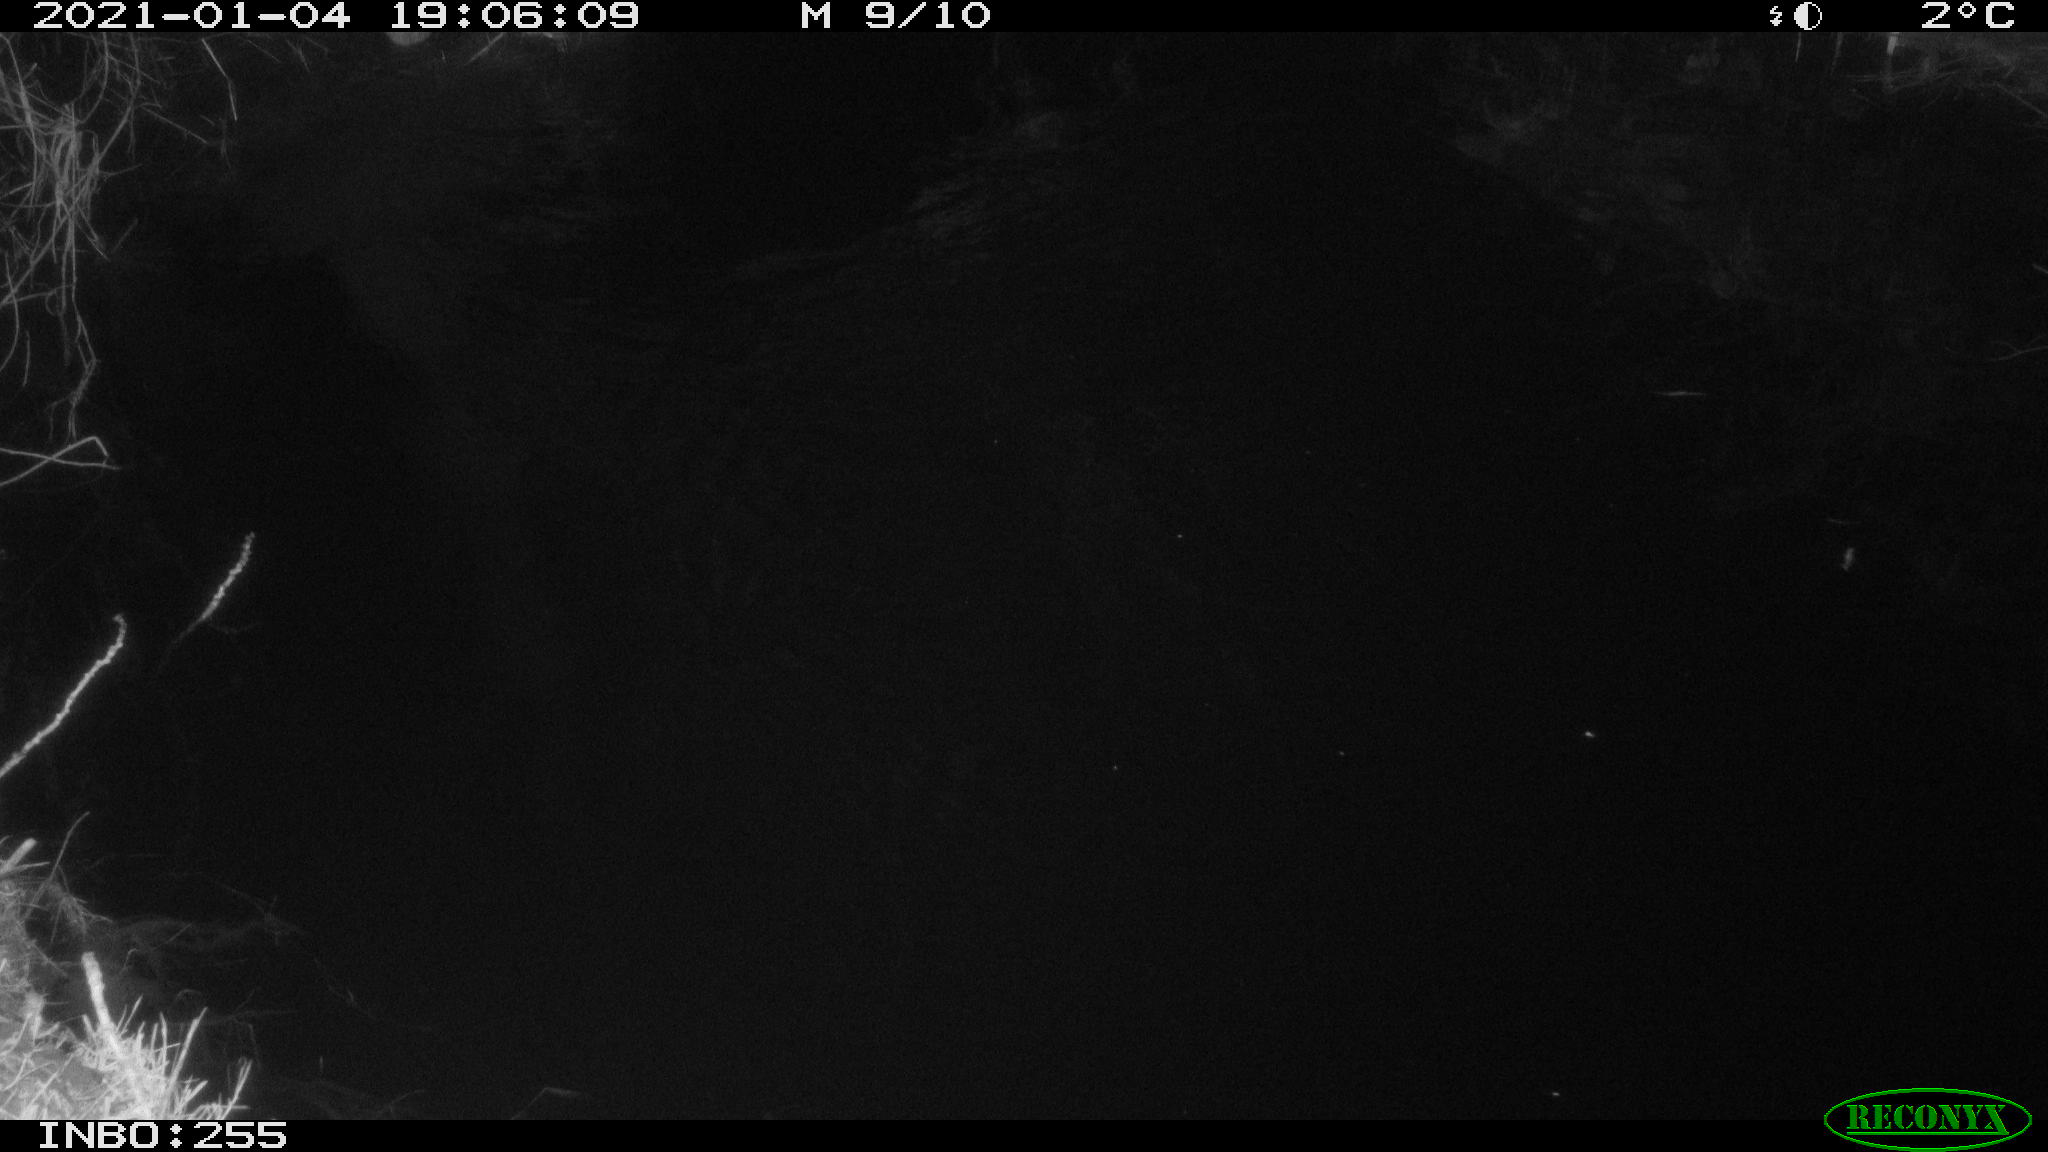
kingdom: Animalia
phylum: Chordata
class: Mammalia
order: Rodentia
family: Muridae
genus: Rattus
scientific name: Rattus norvegicus
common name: Brown rat
